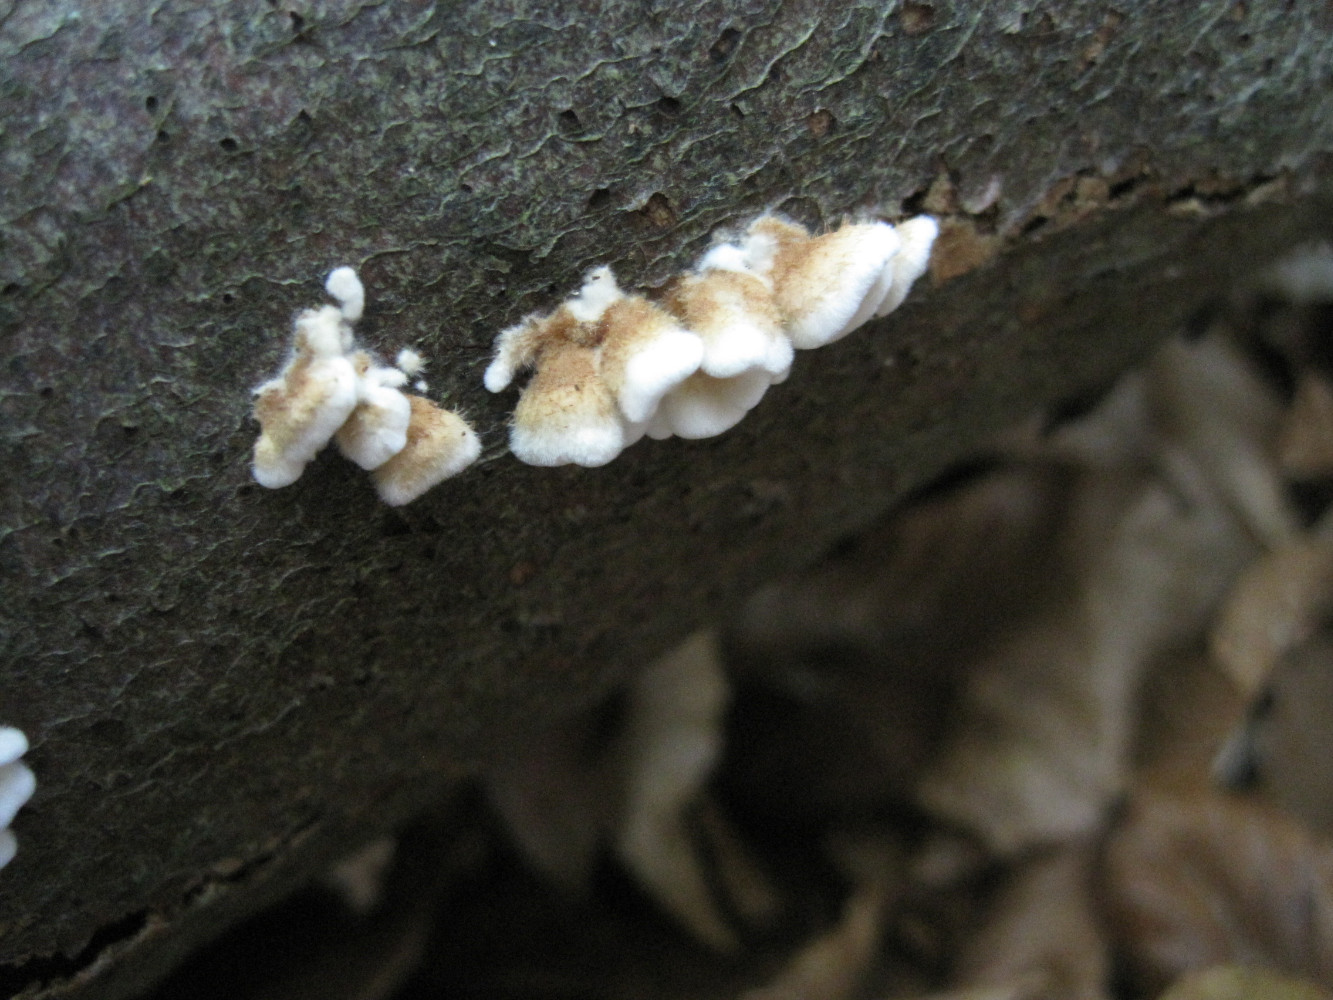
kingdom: Fungi
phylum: Basidiomycota
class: Agaricomycetes
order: Amylocorticiales
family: Amylocorticiaceae
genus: Plicaturopsis
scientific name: Plicaturopsis crispa
